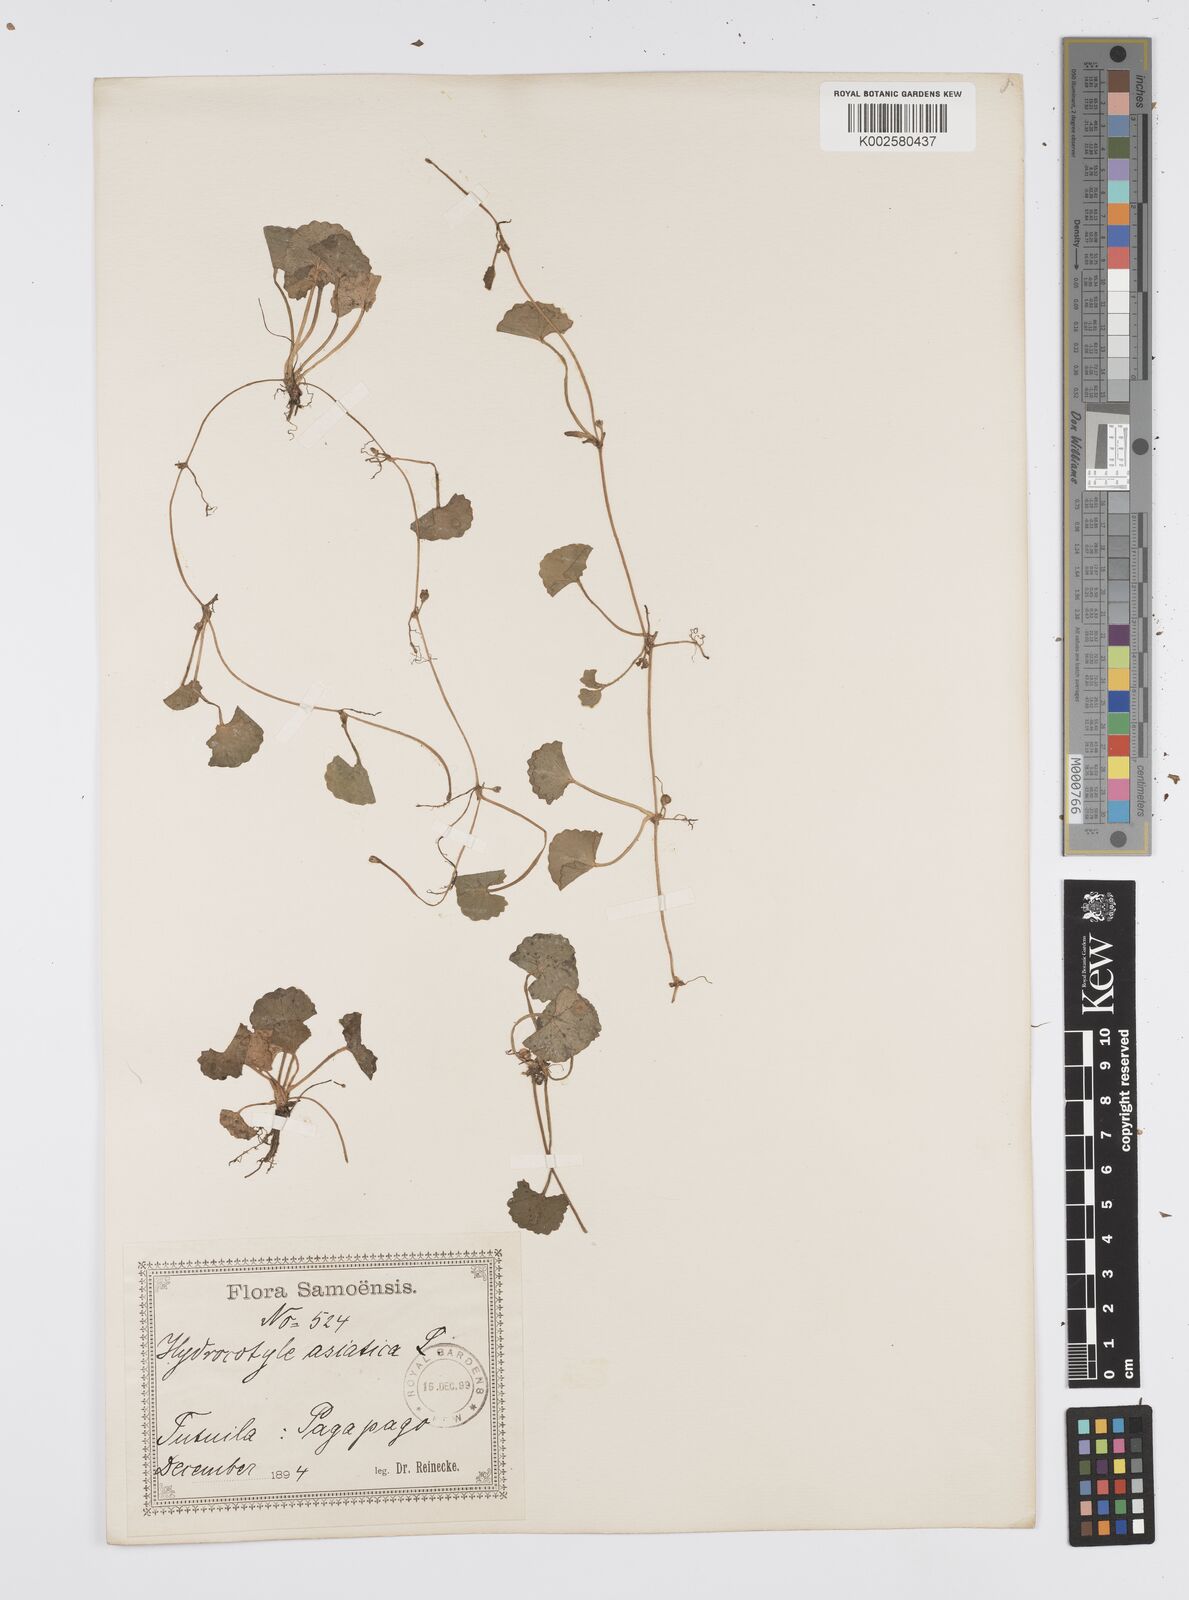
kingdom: Plantae
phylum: Tracheophyta
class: Magnoliopsida
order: Apiales
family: Apiaceae
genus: Centella
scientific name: Centella asiatica
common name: Spadeleaf
